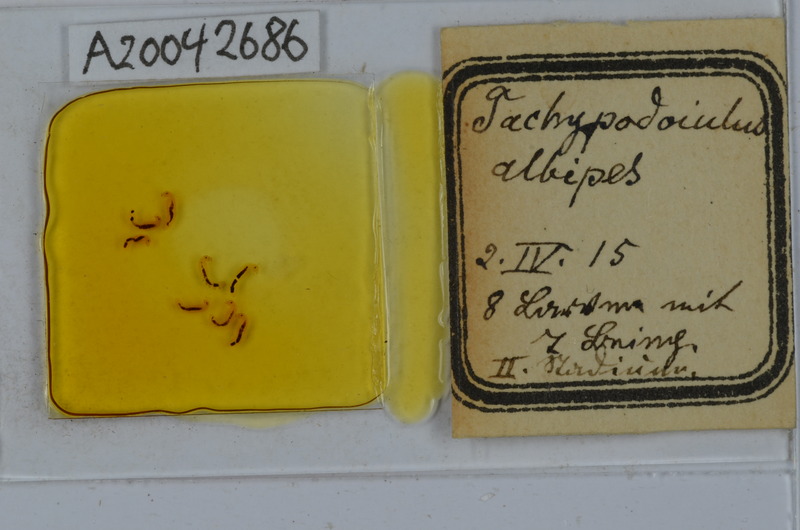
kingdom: Animalia
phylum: Arthropoda
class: Diplopoda
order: Julida
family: Julidae
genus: Tachypodoiulus
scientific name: Tachypodoiulus niger
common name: White-legged snake millipede
